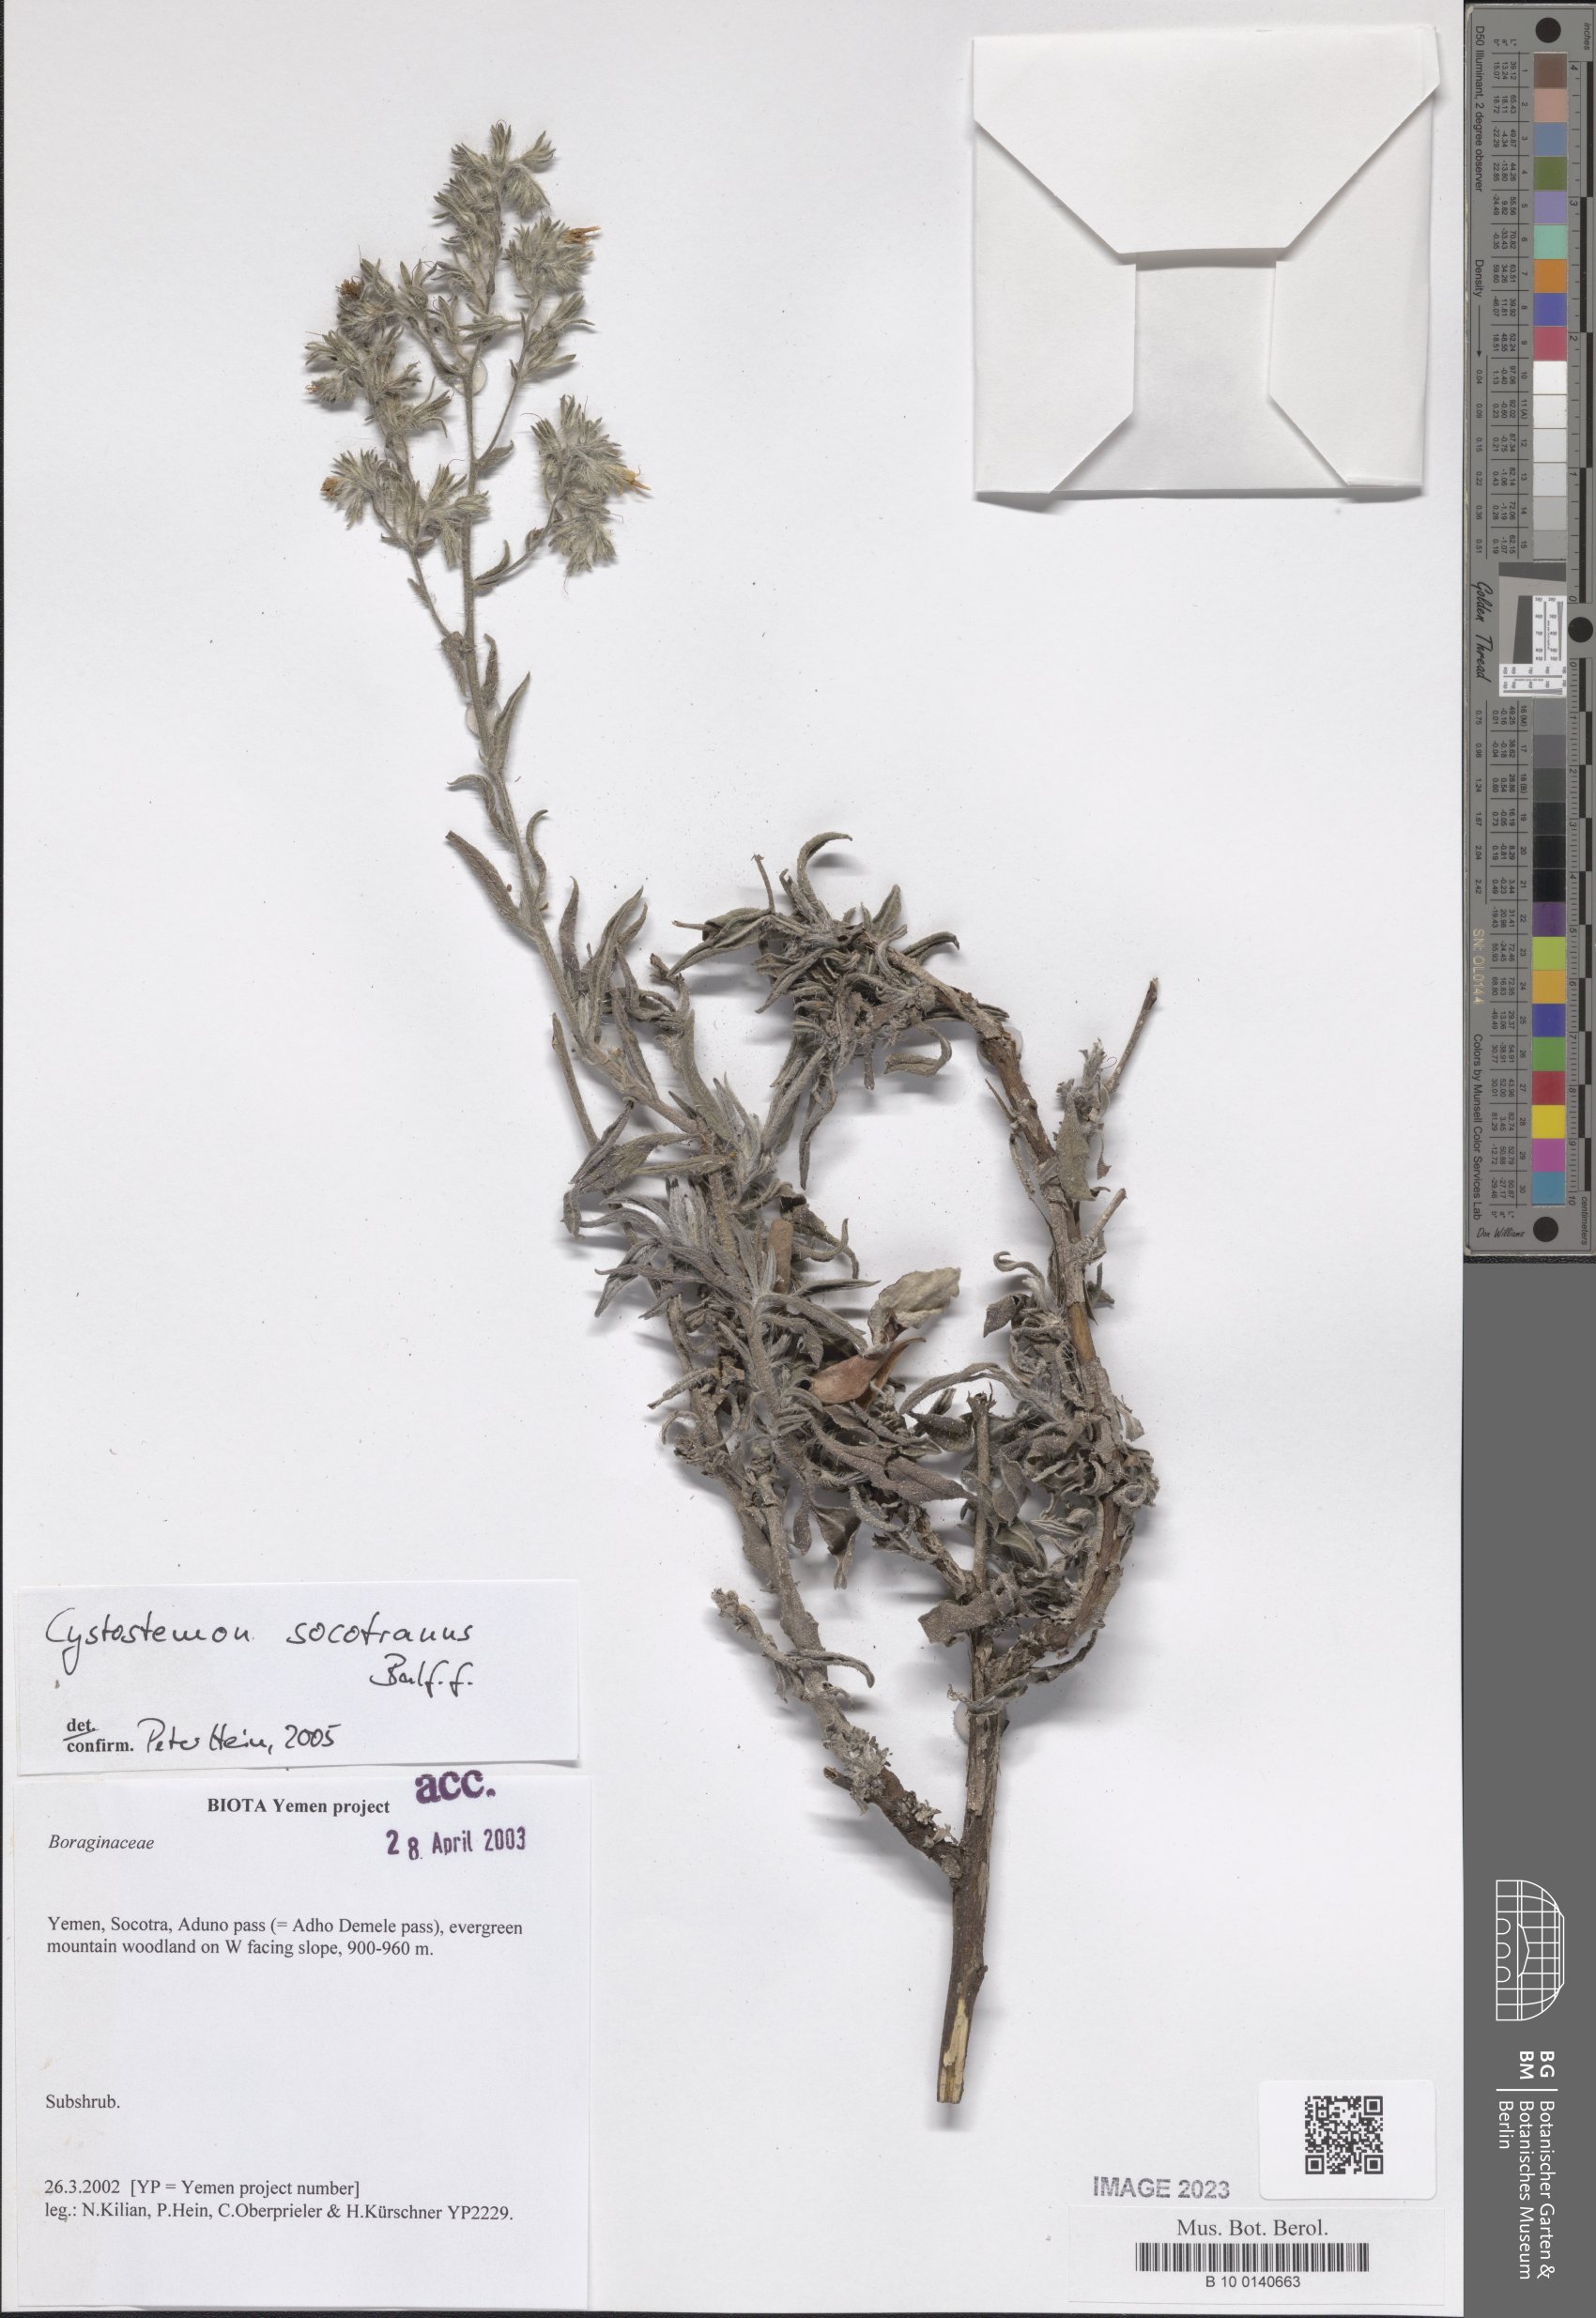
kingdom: Plantae
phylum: Tracheophyta
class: Magnoliopsida
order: Boraginales
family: Boraginaceae
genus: Cystostemon
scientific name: Cystostemon socotranus
